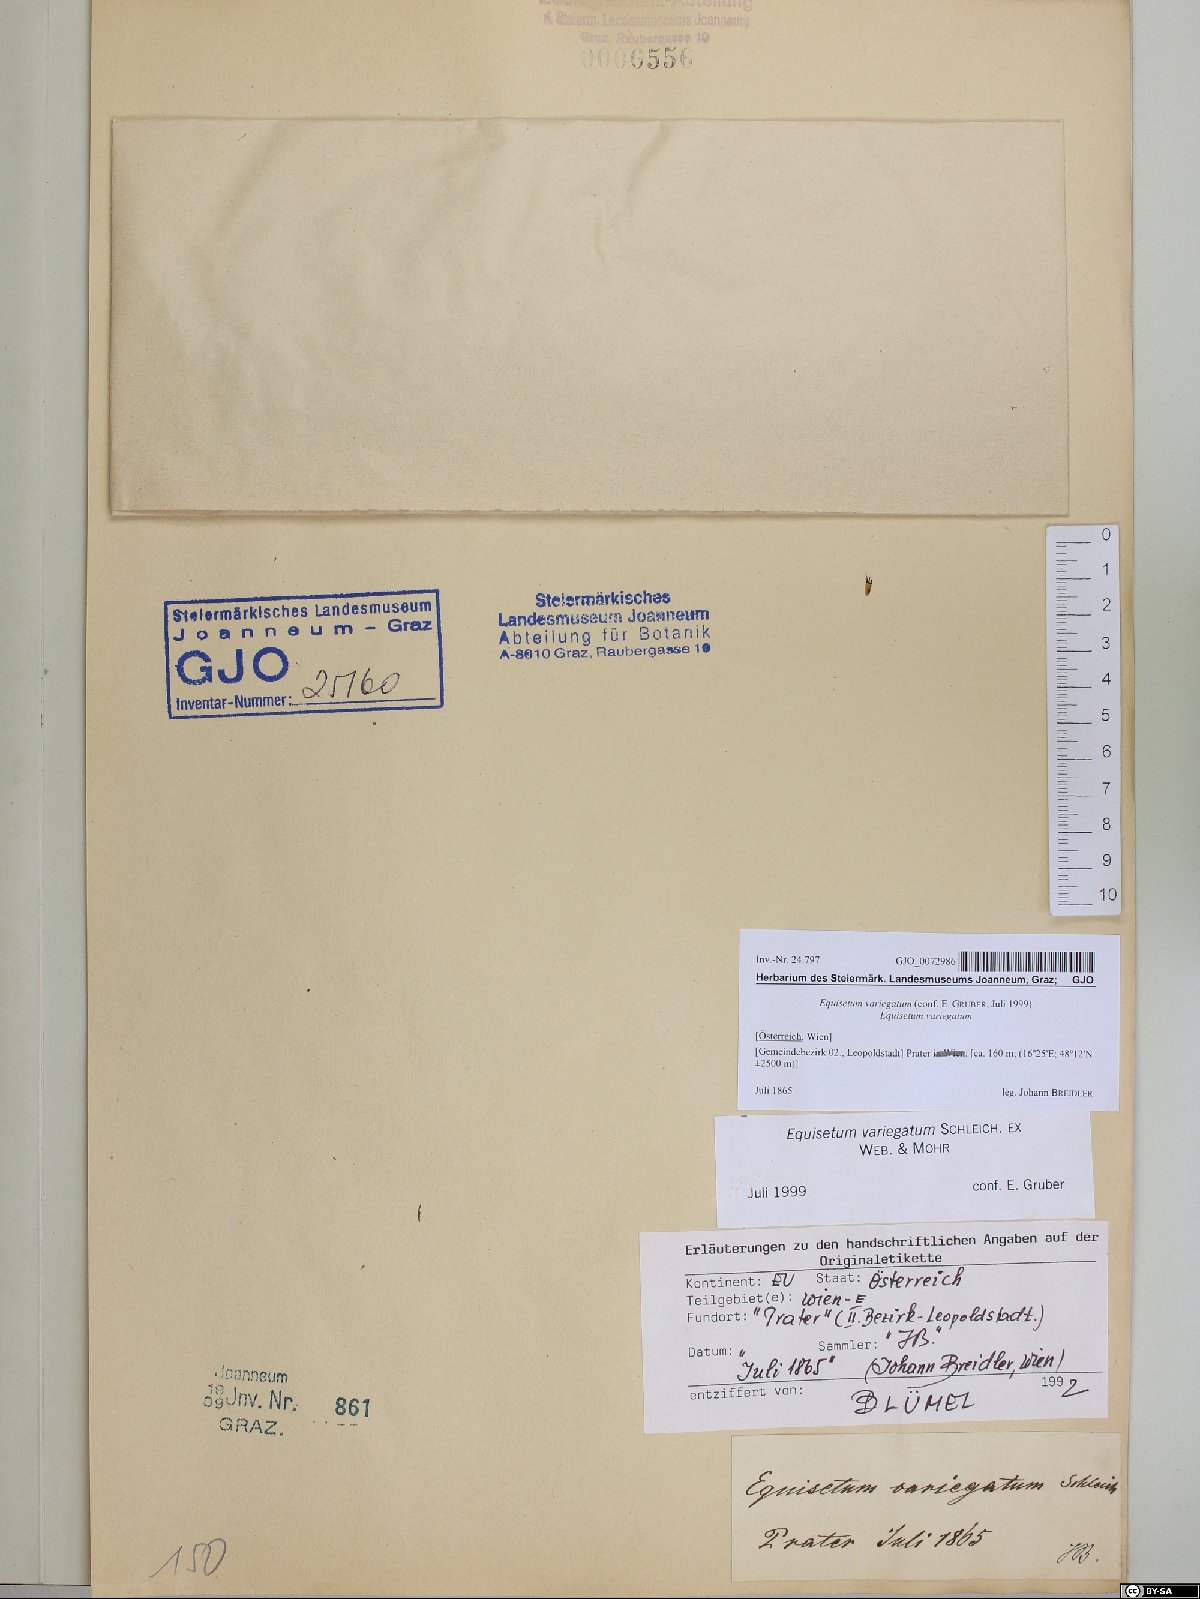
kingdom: Plantae
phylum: Tracheophyta
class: Polypodiopsida
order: Equisetales
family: Equisetaceae
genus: Equisetum
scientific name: Equisetum variegatum
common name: Variegated horsetail
